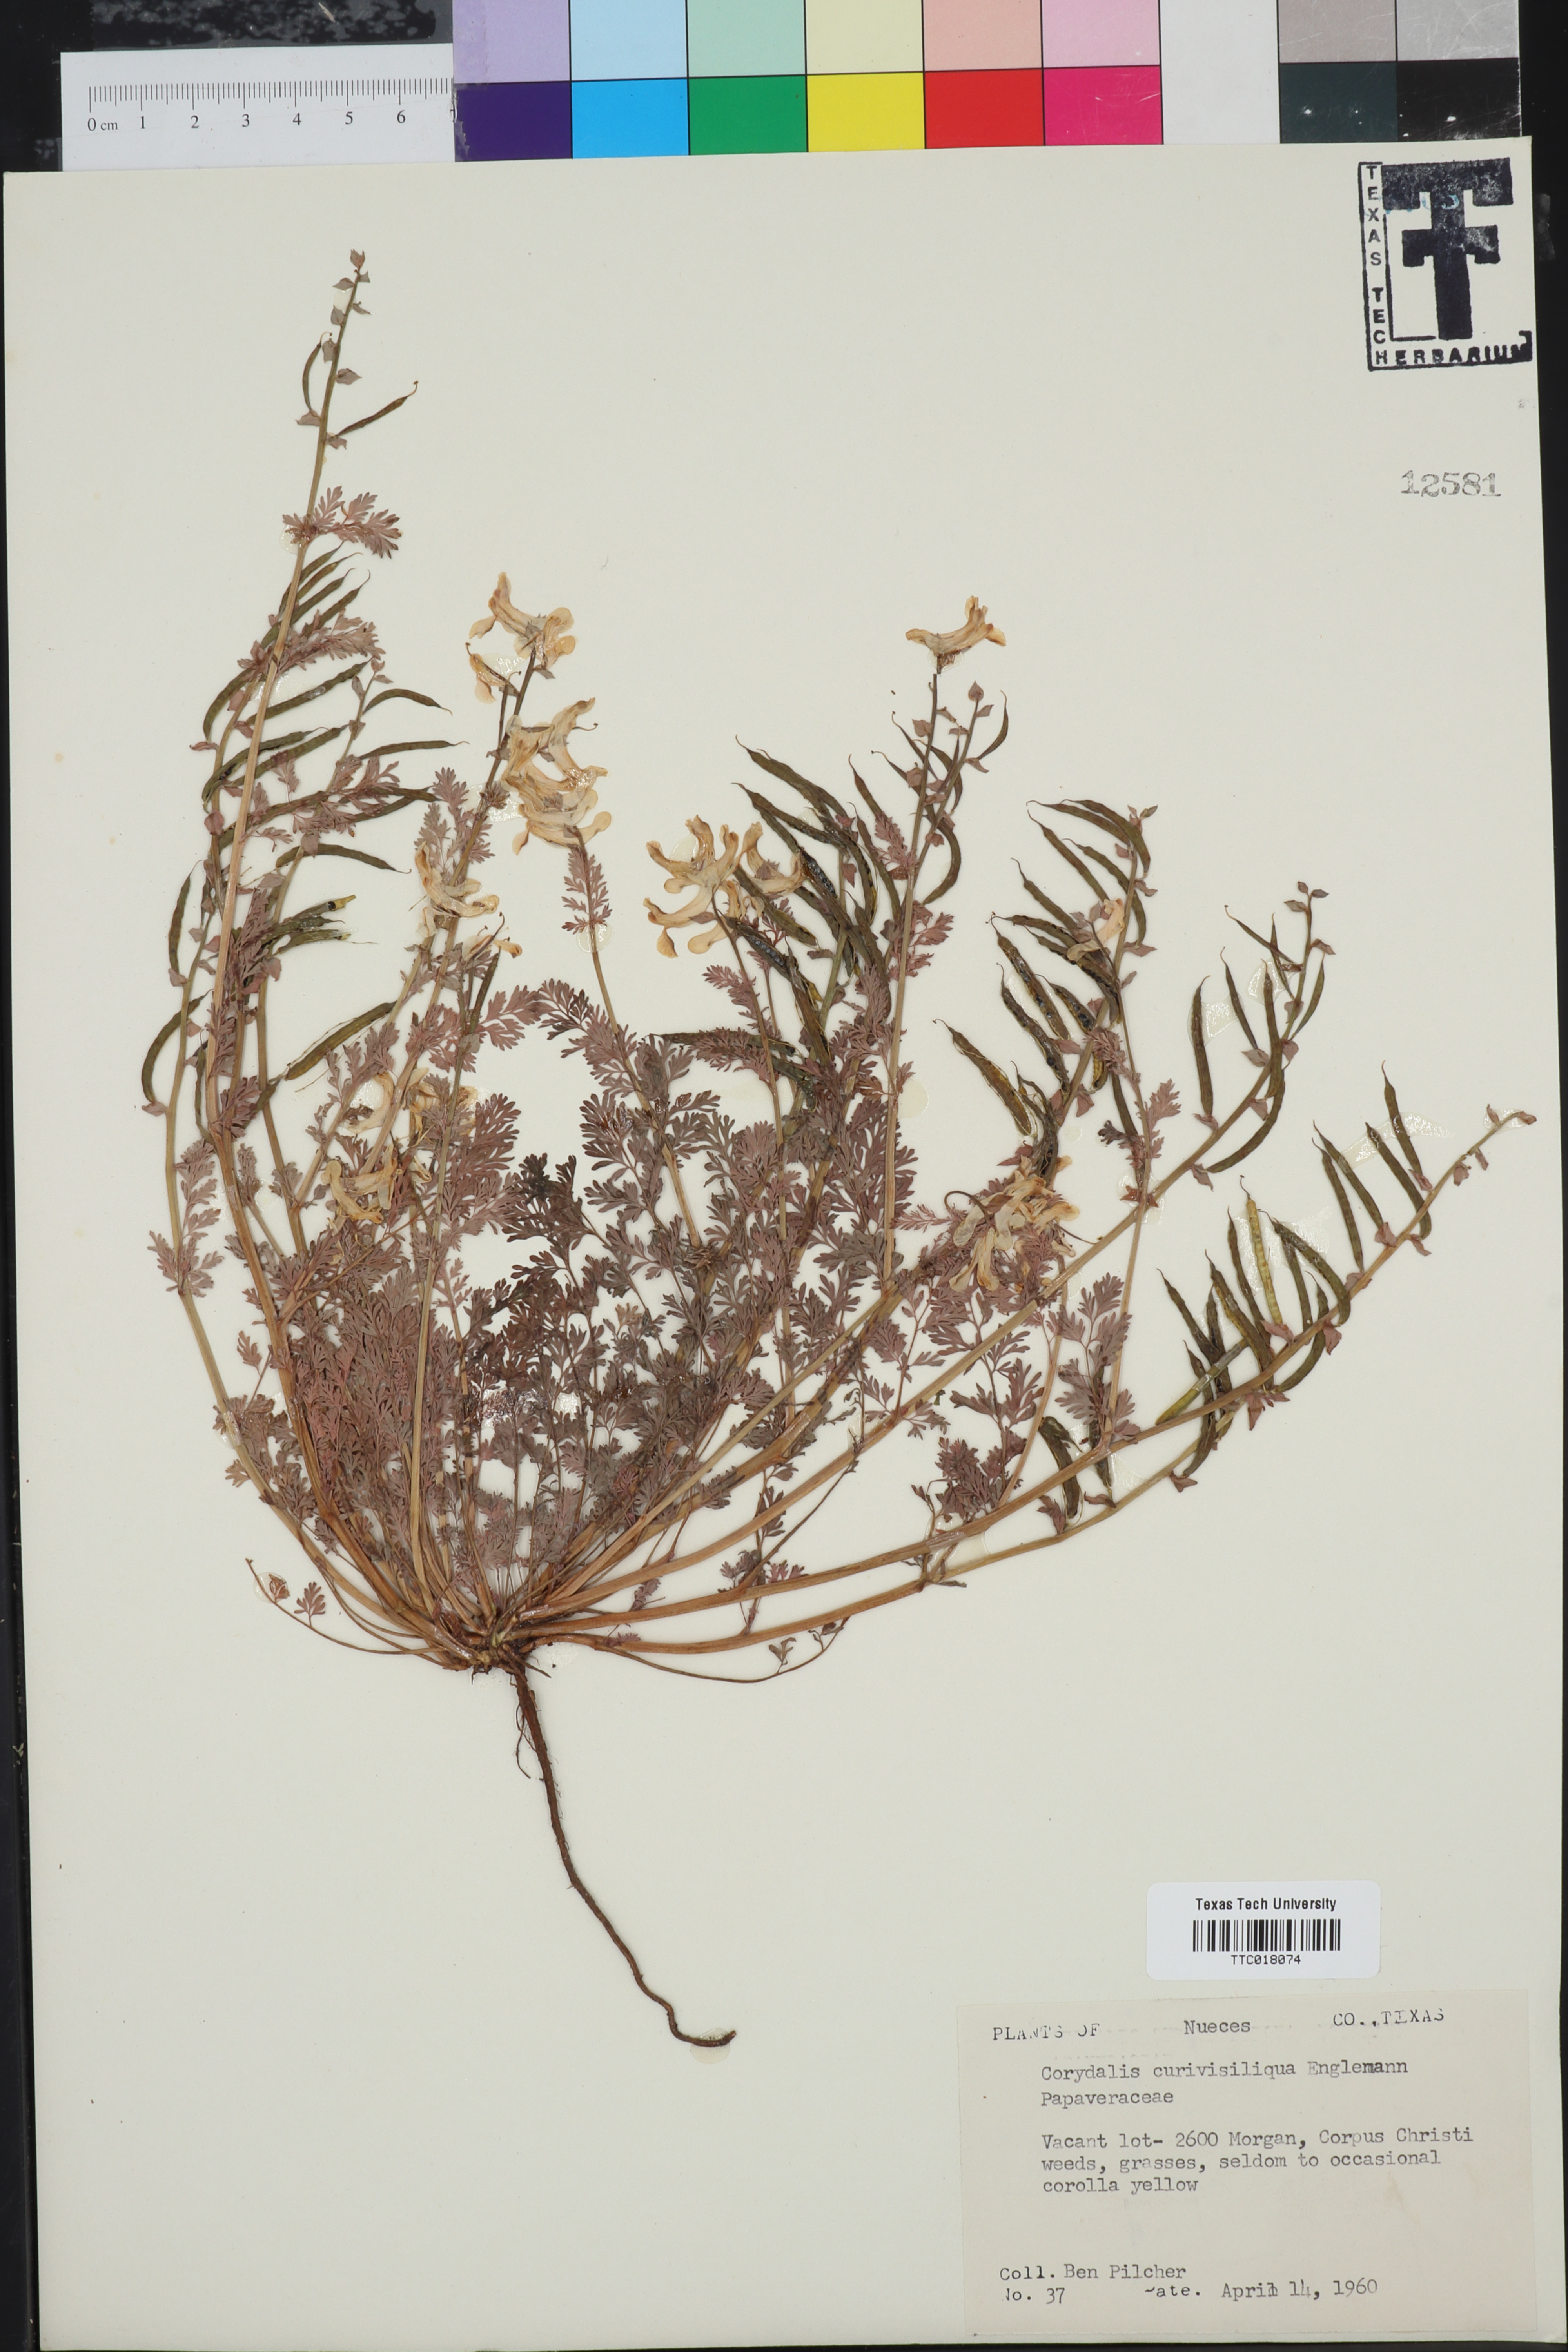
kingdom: Plantae
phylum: Tracheophyta
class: Magnoliopsida
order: Ranunculales
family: Papaveraceae
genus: Corydalis
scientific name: Corydalis curvisiliqua
